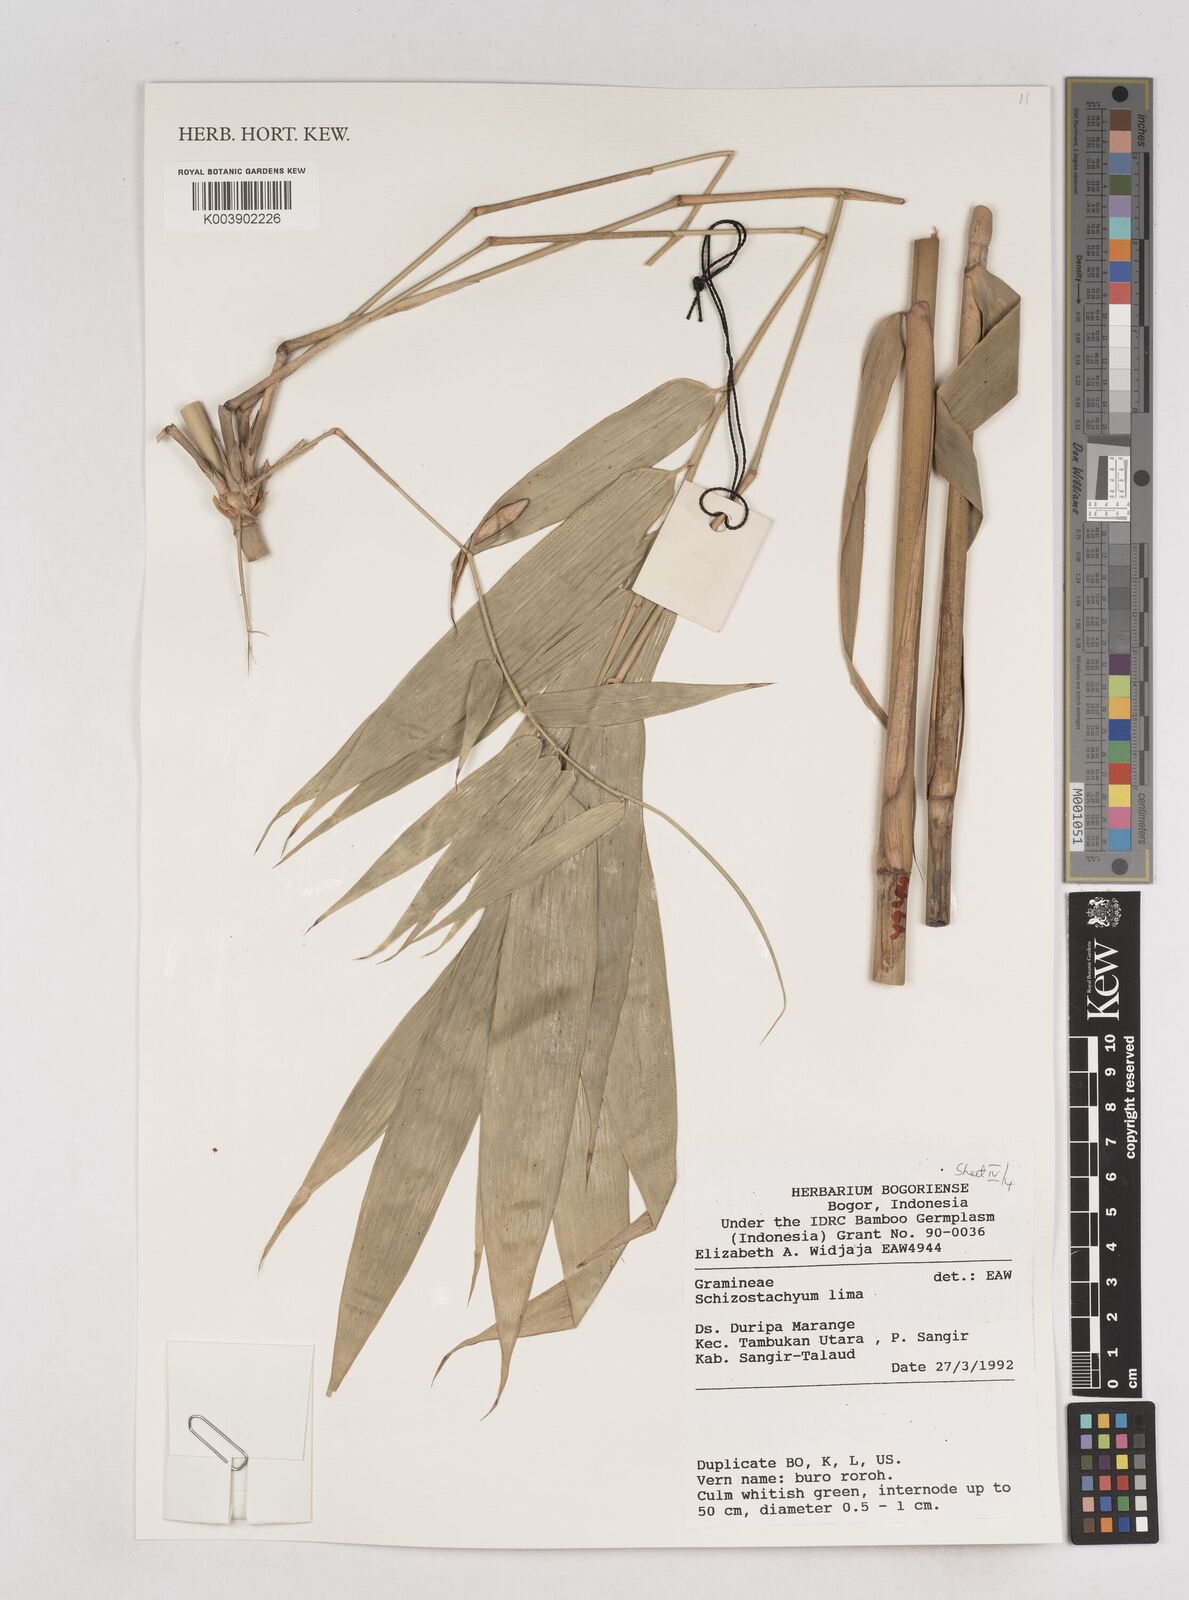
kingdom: Plantae
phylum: Tracheophyta
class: Liliopsida
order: Poales
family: Poaceae
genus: Schizostachyum
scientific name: Schizostachyum lima
